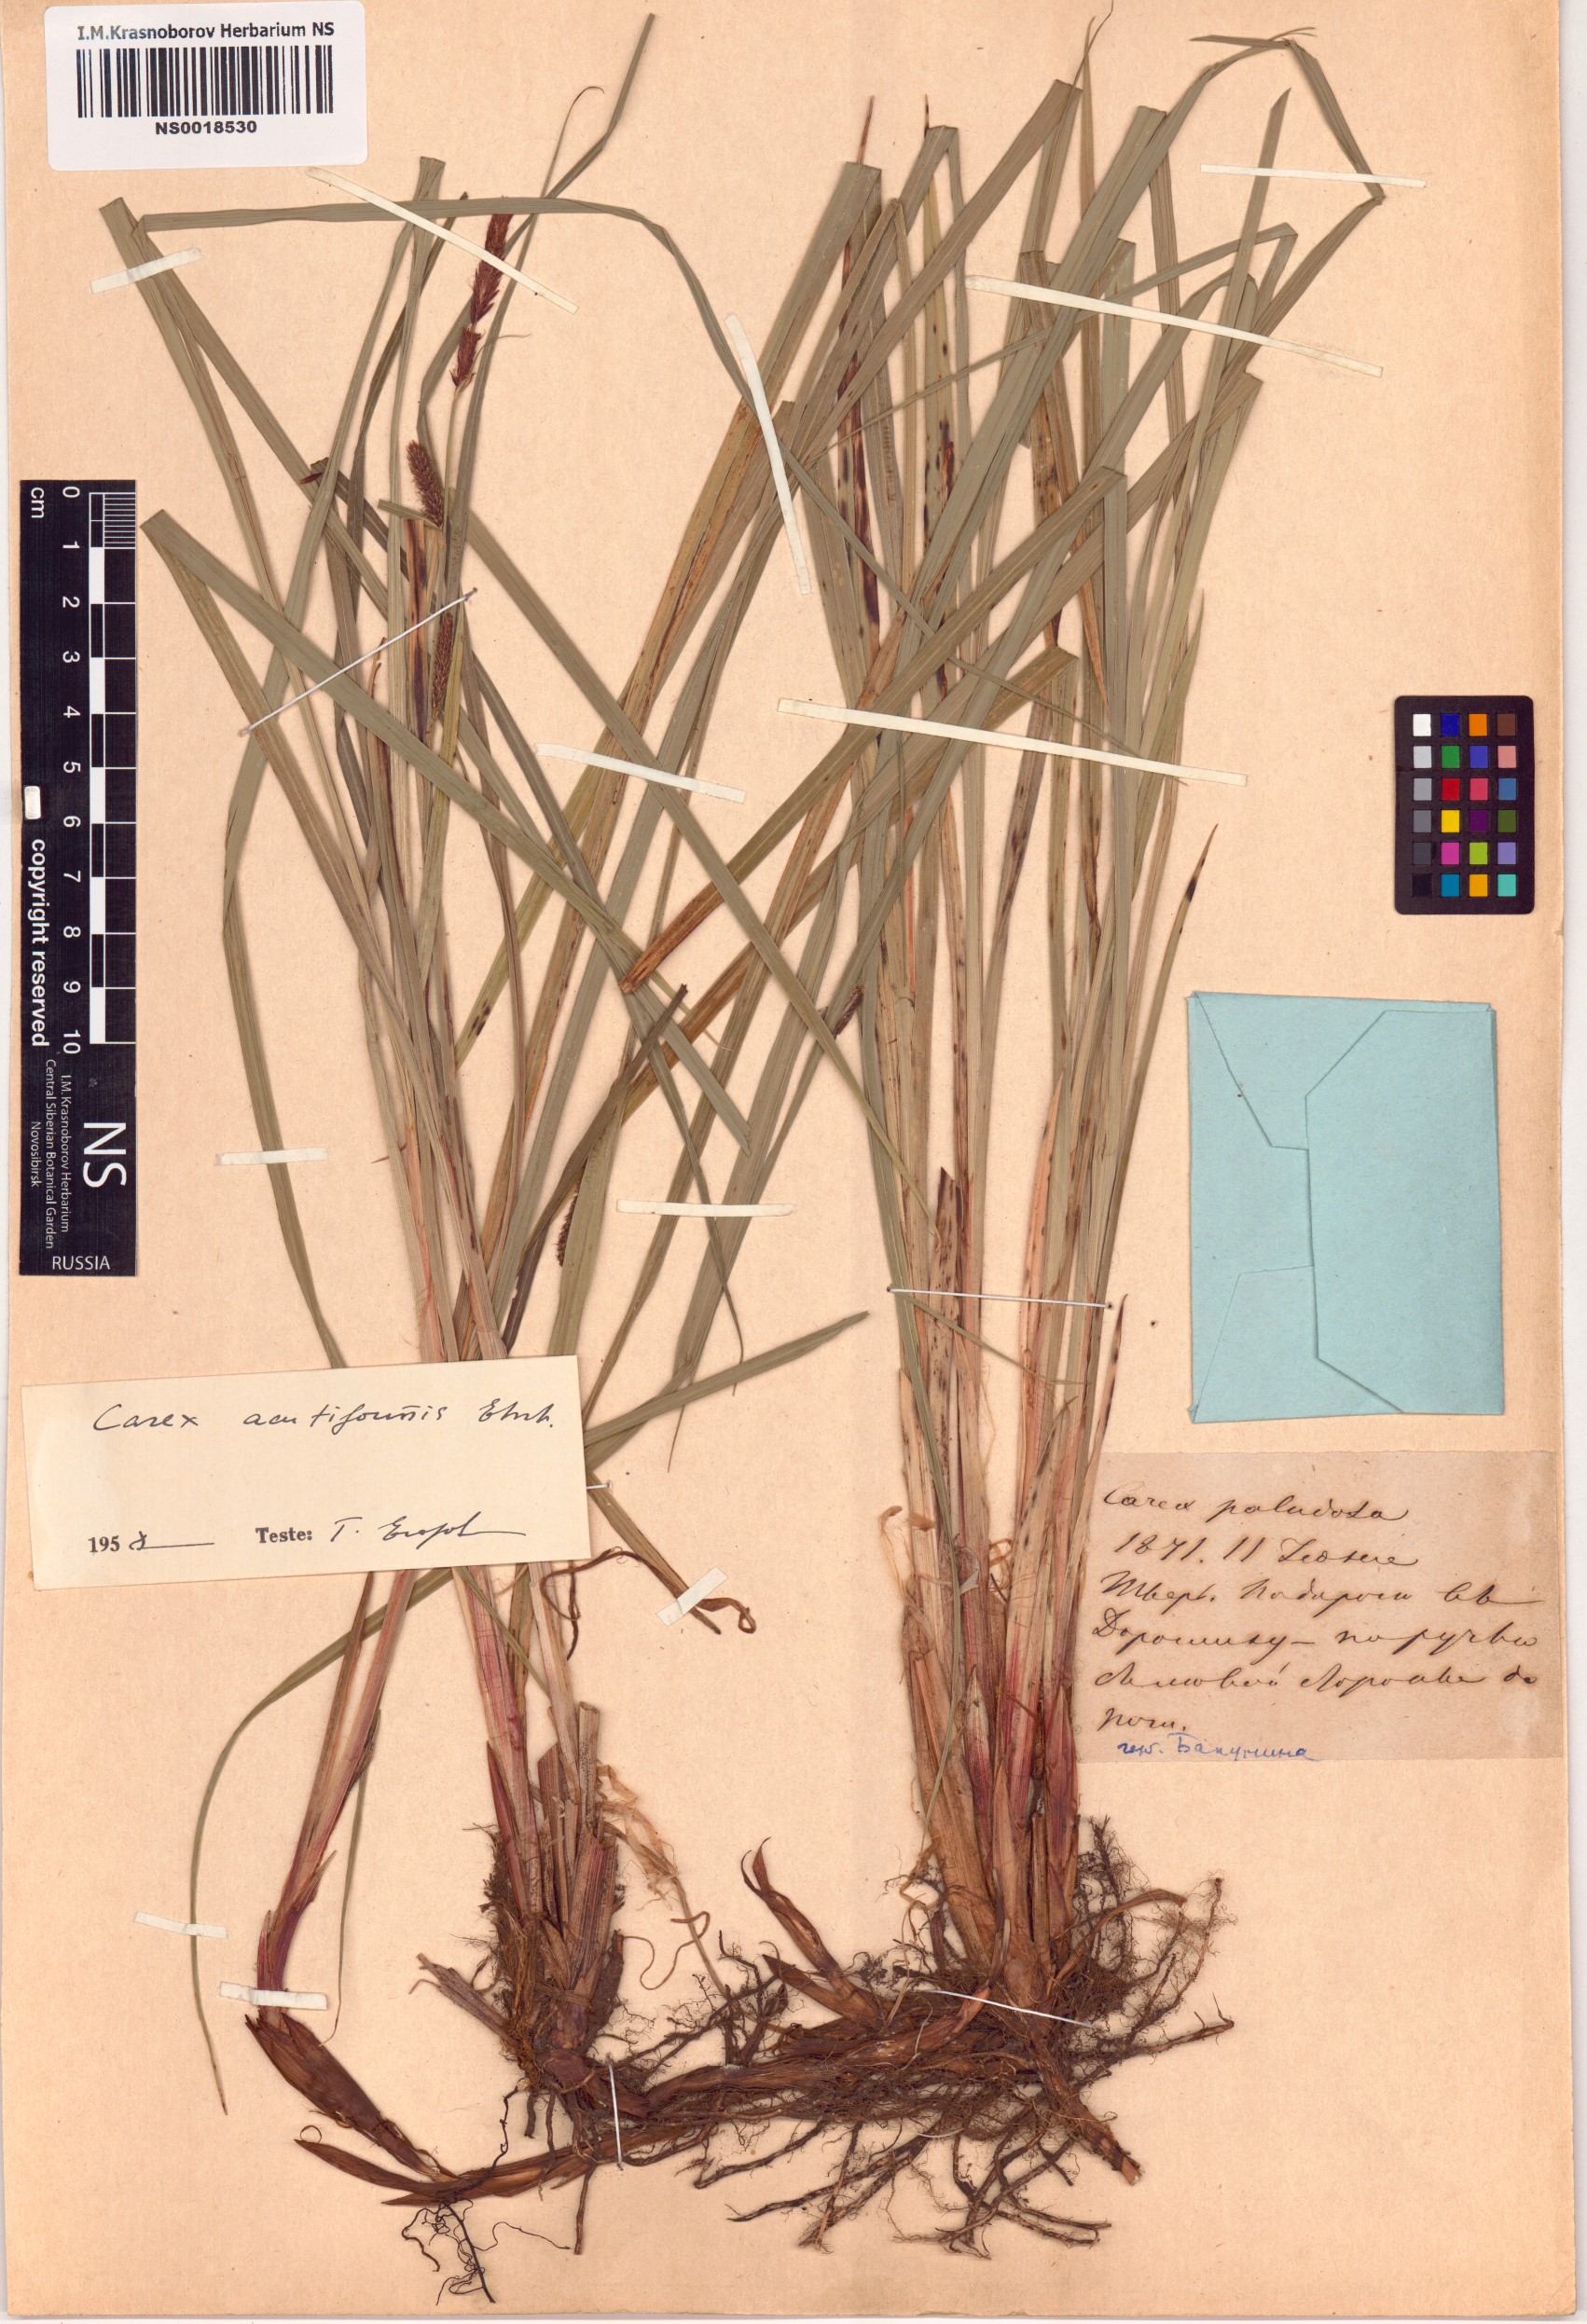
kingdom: Plantae
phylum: Tracheophyta
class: Liliopsida
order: Poales
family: Cyperaceae
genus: Carex
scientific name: Carex acutiformis
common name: Lesser pond-sedge
